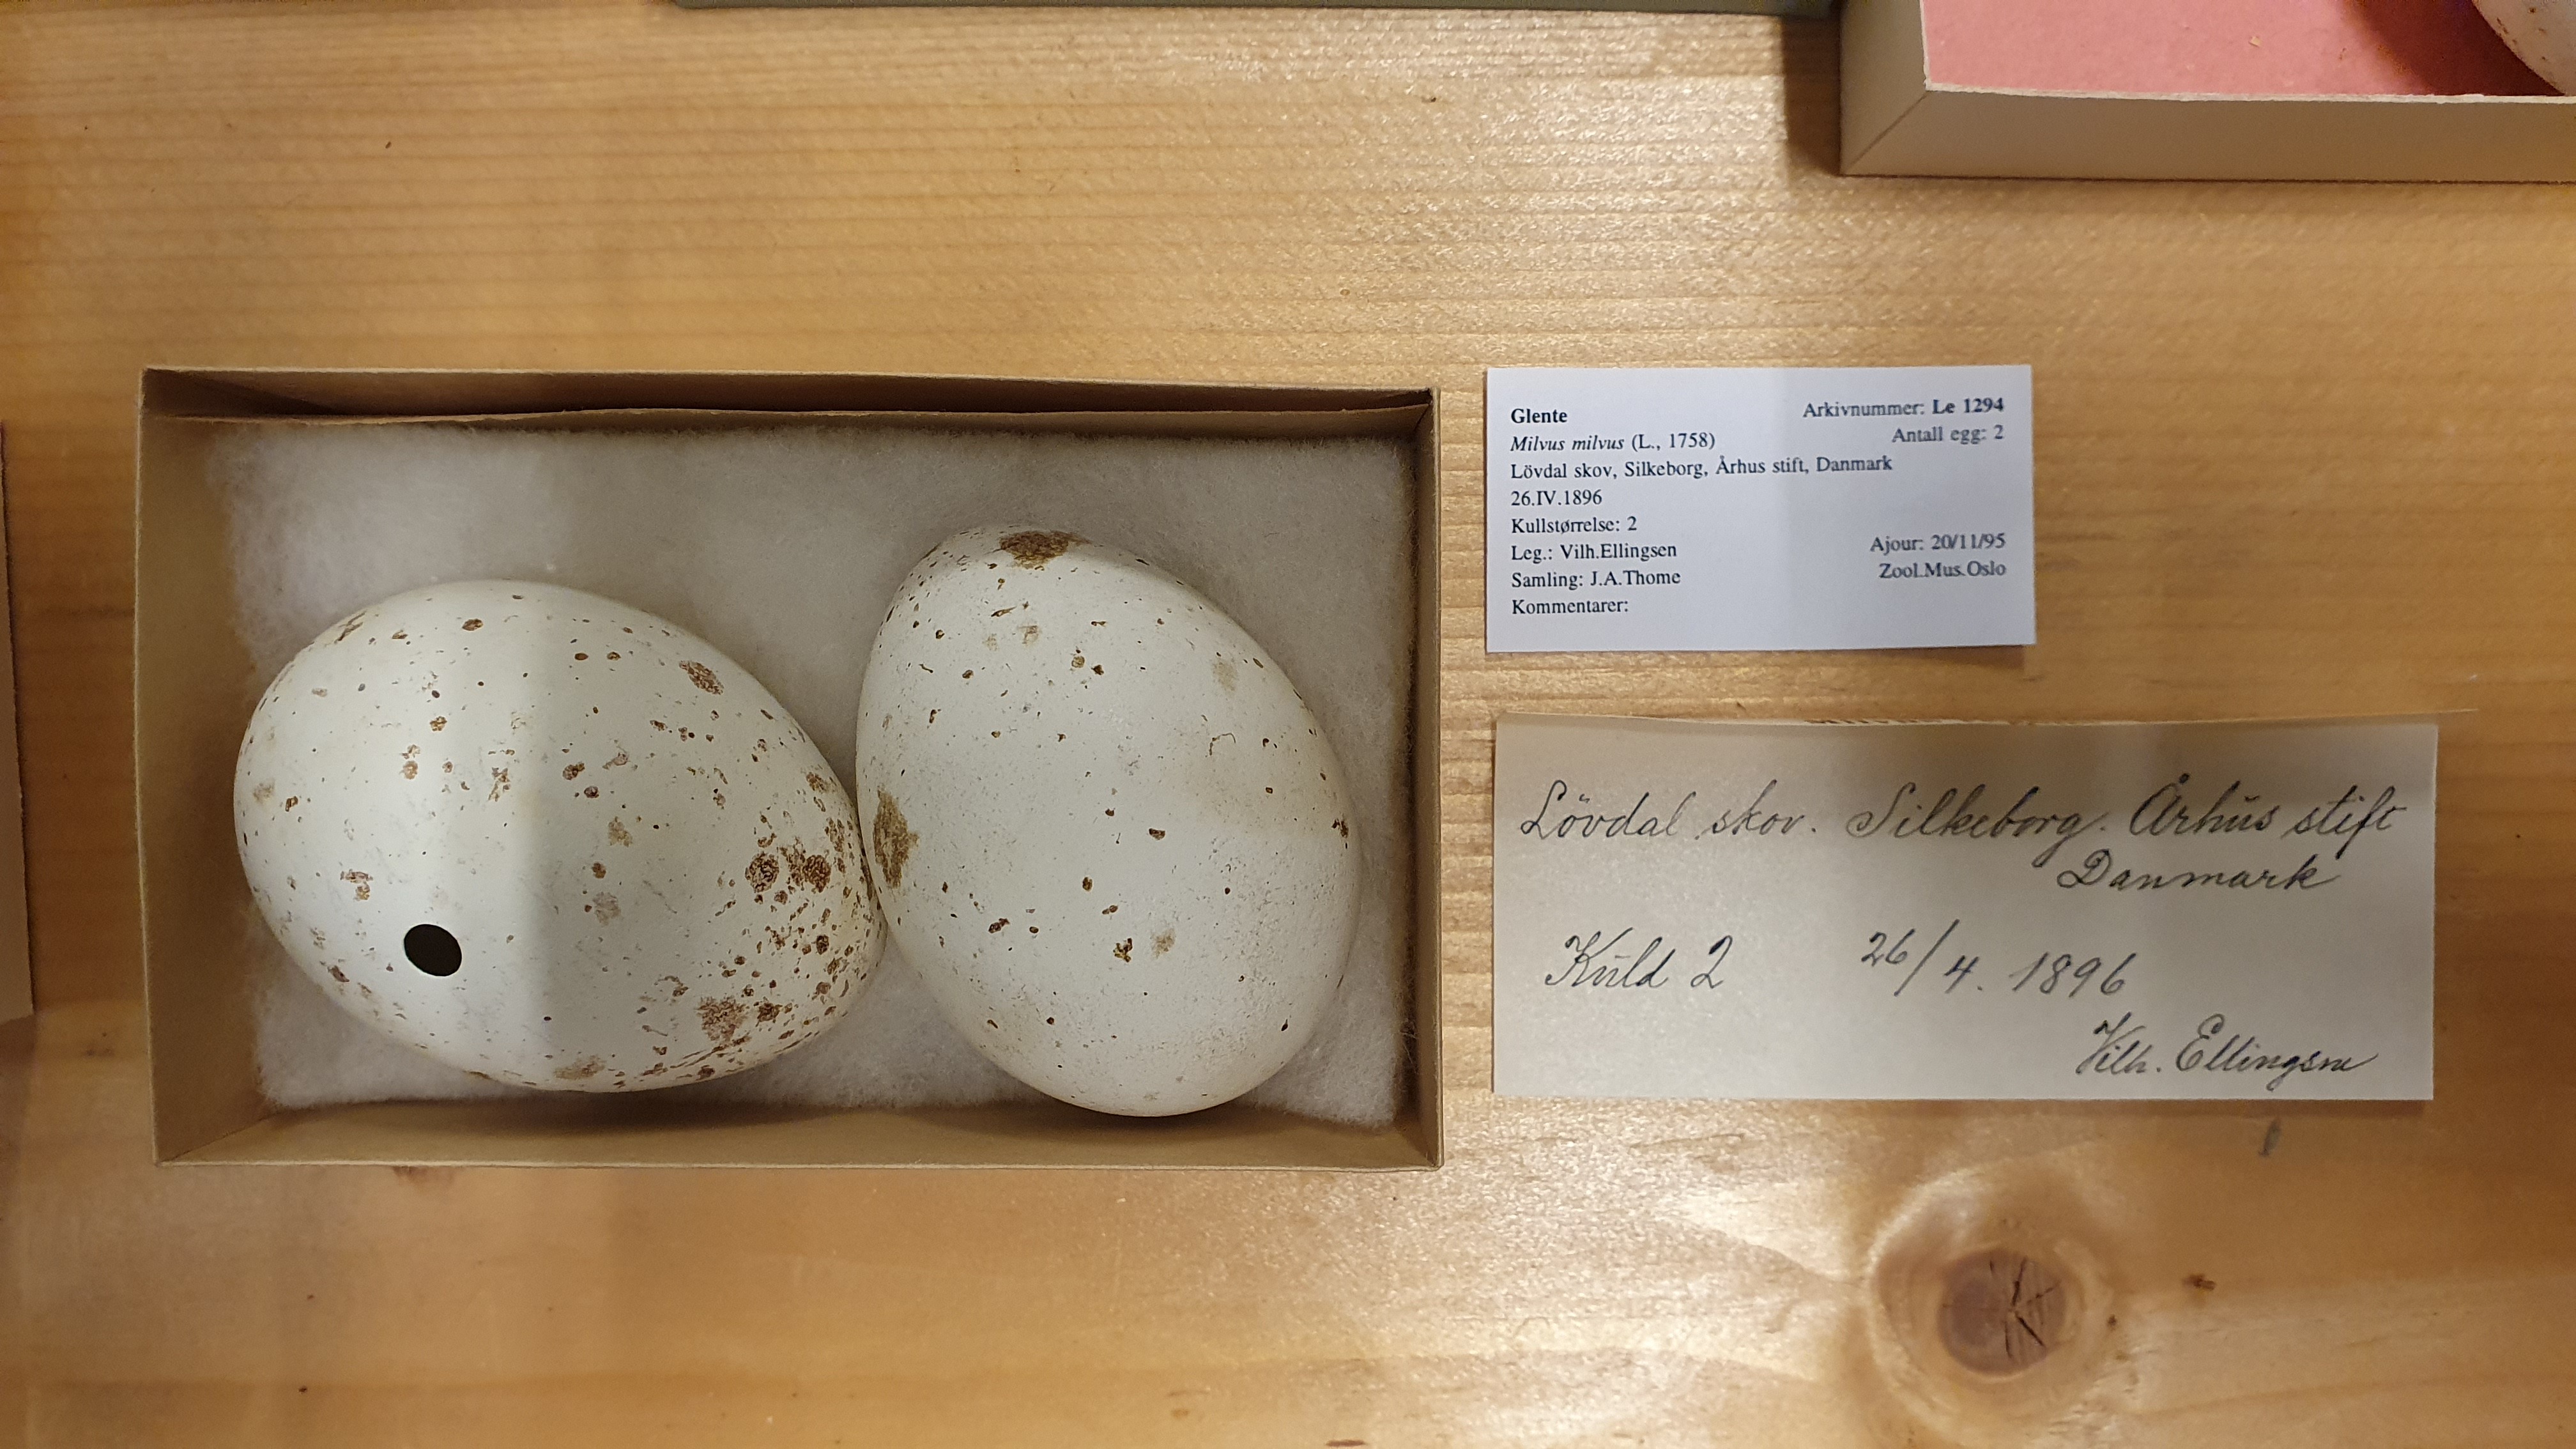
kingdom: Animalia
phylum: Chordata
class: Aves
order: Accipitriformes
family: Accipitridae
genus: Milvus
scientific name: Milvus milvus
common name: Red kite
